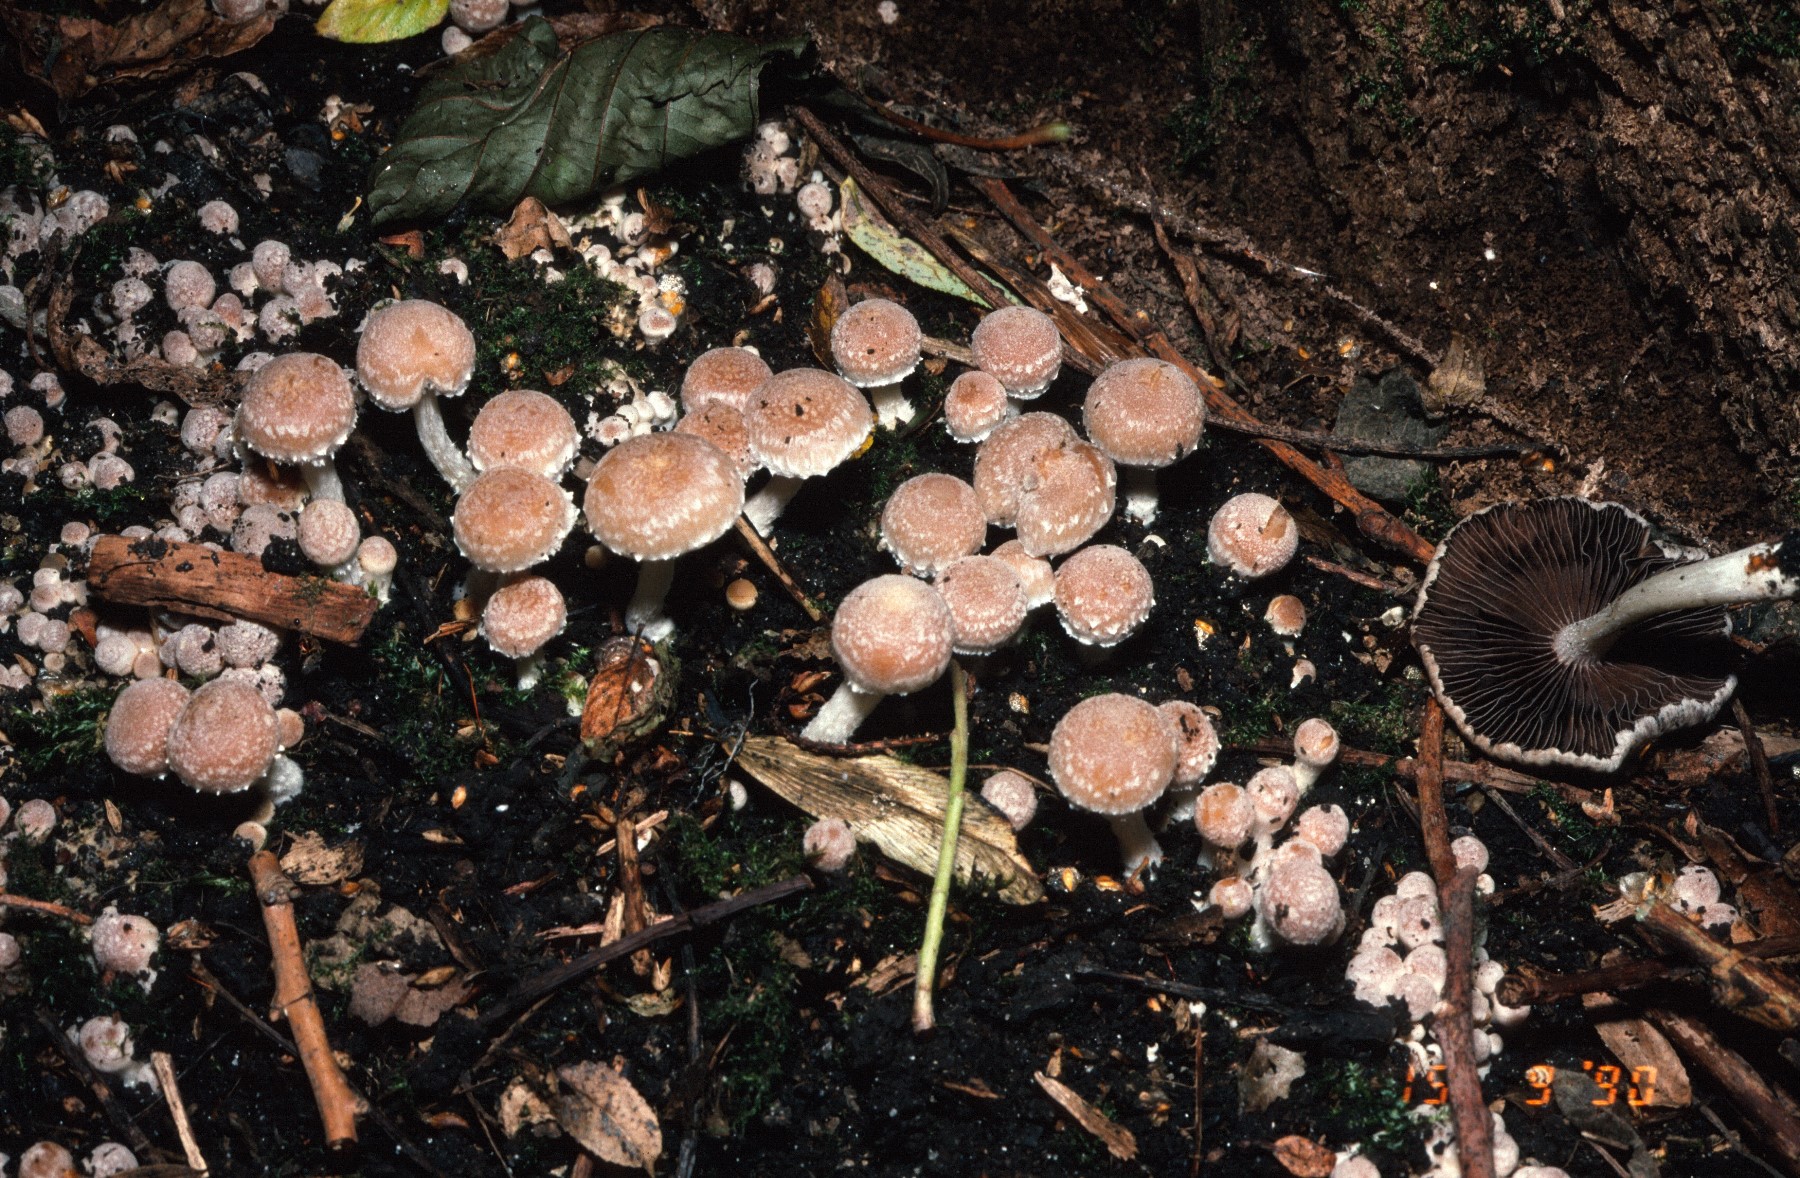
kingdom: Fungi
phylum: Basidiomycota
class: Agaricomycetes
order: Agaricales
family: Psathyrellaceae
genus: Psathyrella
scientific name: Psathyrella
